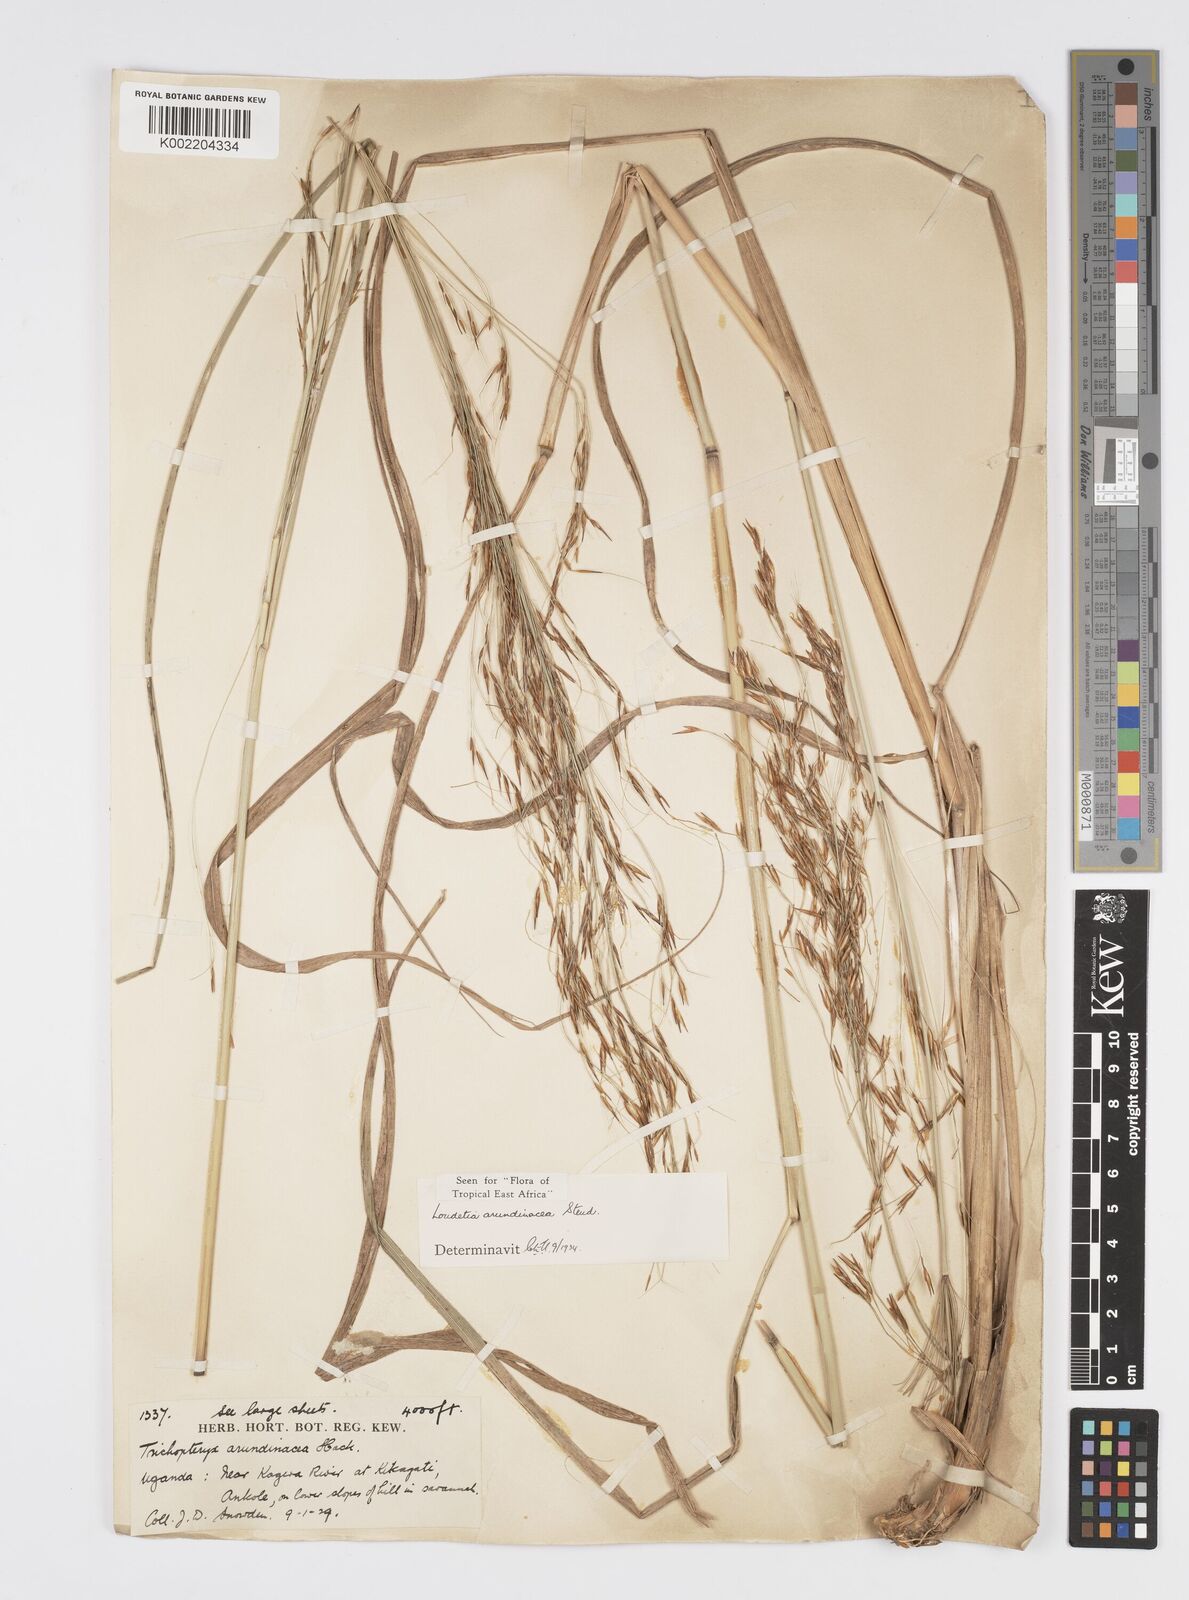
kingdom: Plantae
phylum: Tracheophyta
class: Liliopsida
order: Poales
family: Poaceae
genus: Loudetia
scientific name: Loudetia arundinacea
